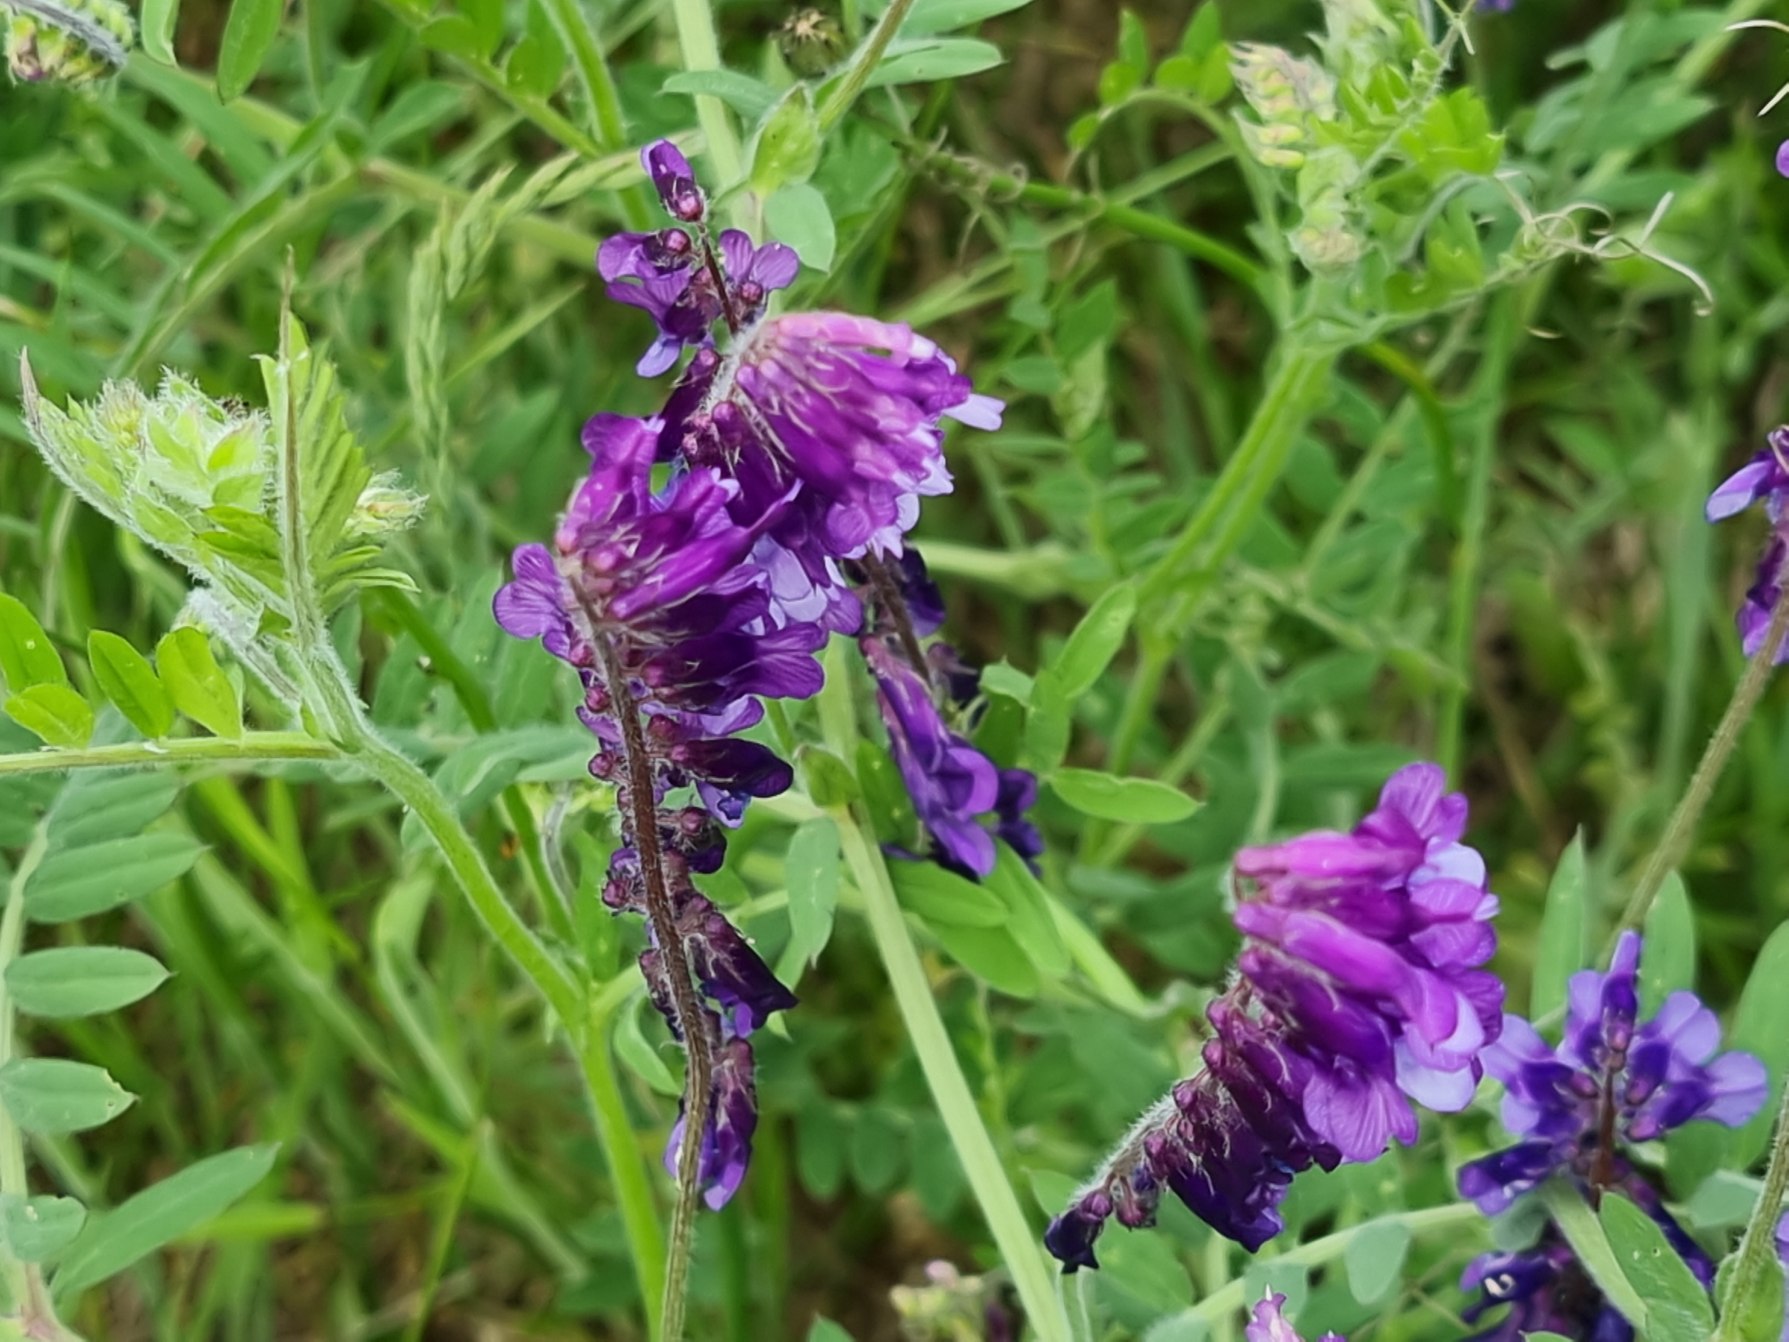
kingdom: Plantae
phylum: Tracheophyta
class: Magnoliopsida
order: Fabales
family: Fabaceae
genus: Vicia
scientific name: Vicia cracca
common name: Muse-vikke
